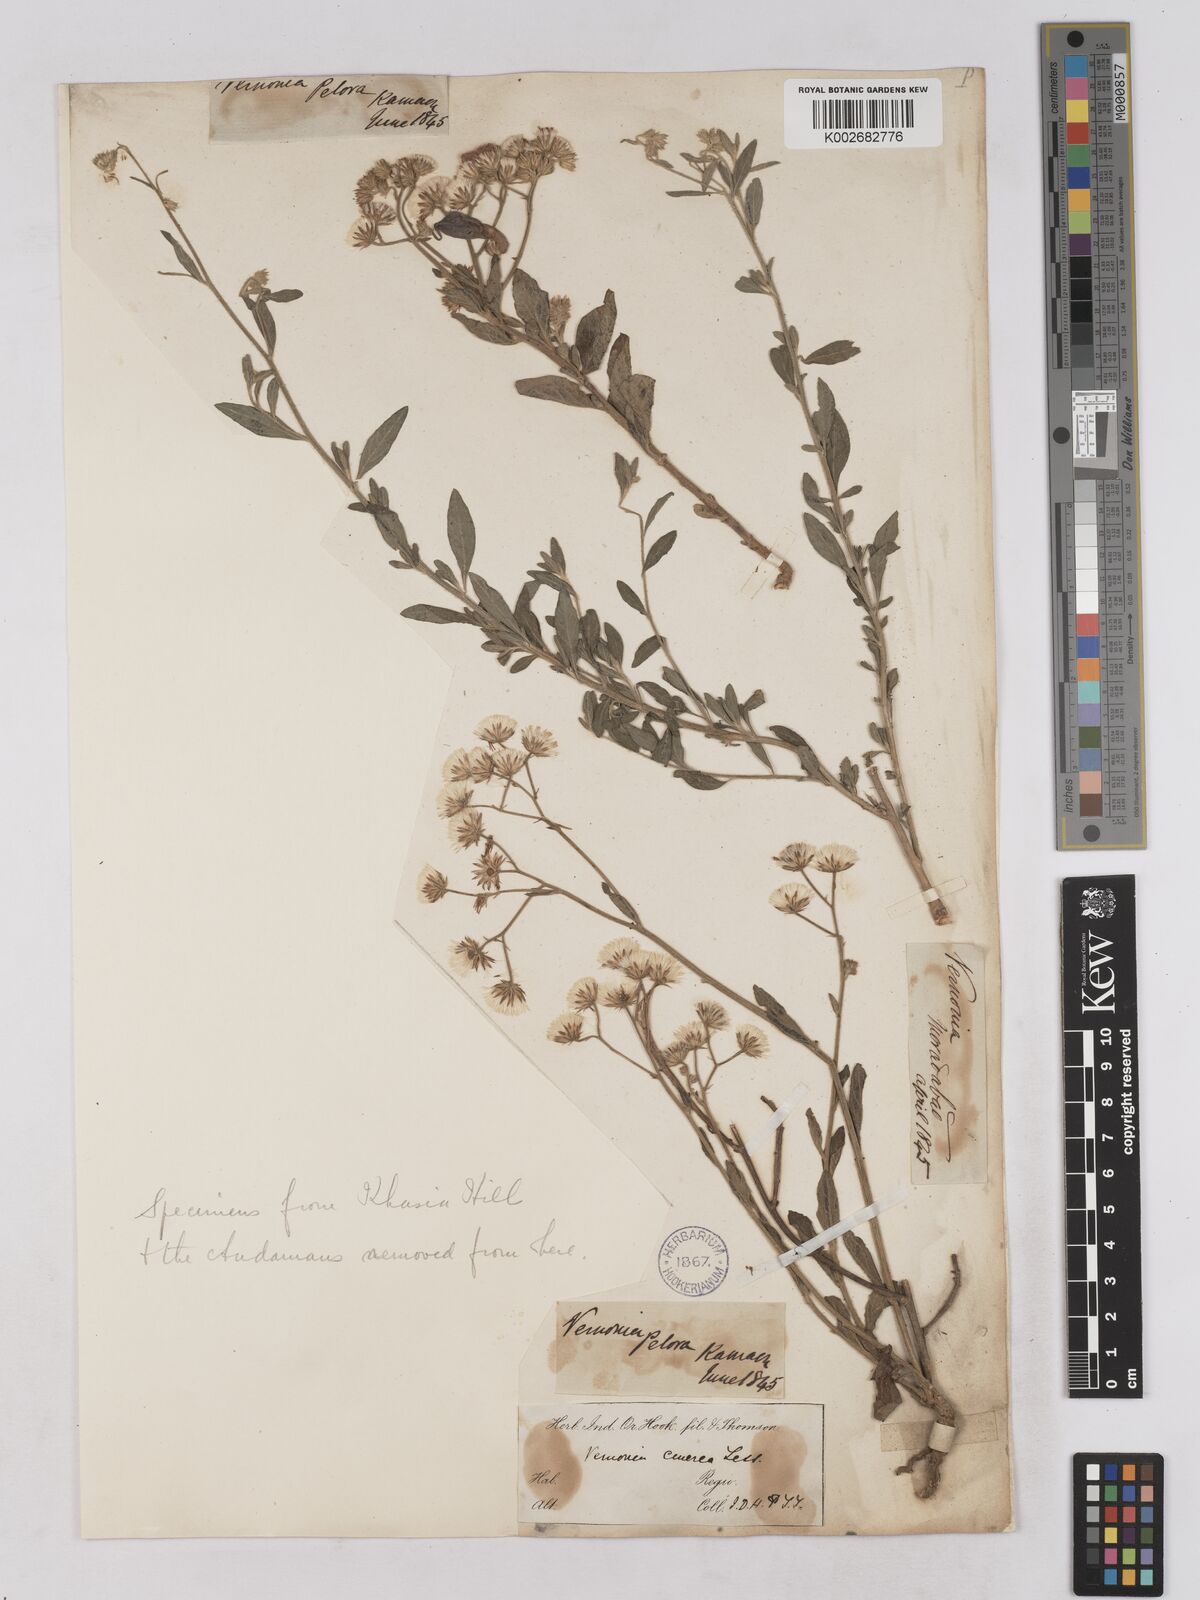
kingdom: Plantae
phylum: Tracheophyta
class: Magnoliopsida
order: Asterales
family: Asteraceae
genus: Cyanthillium
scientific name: Cyanthillium cinereum
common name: Little ironweed
